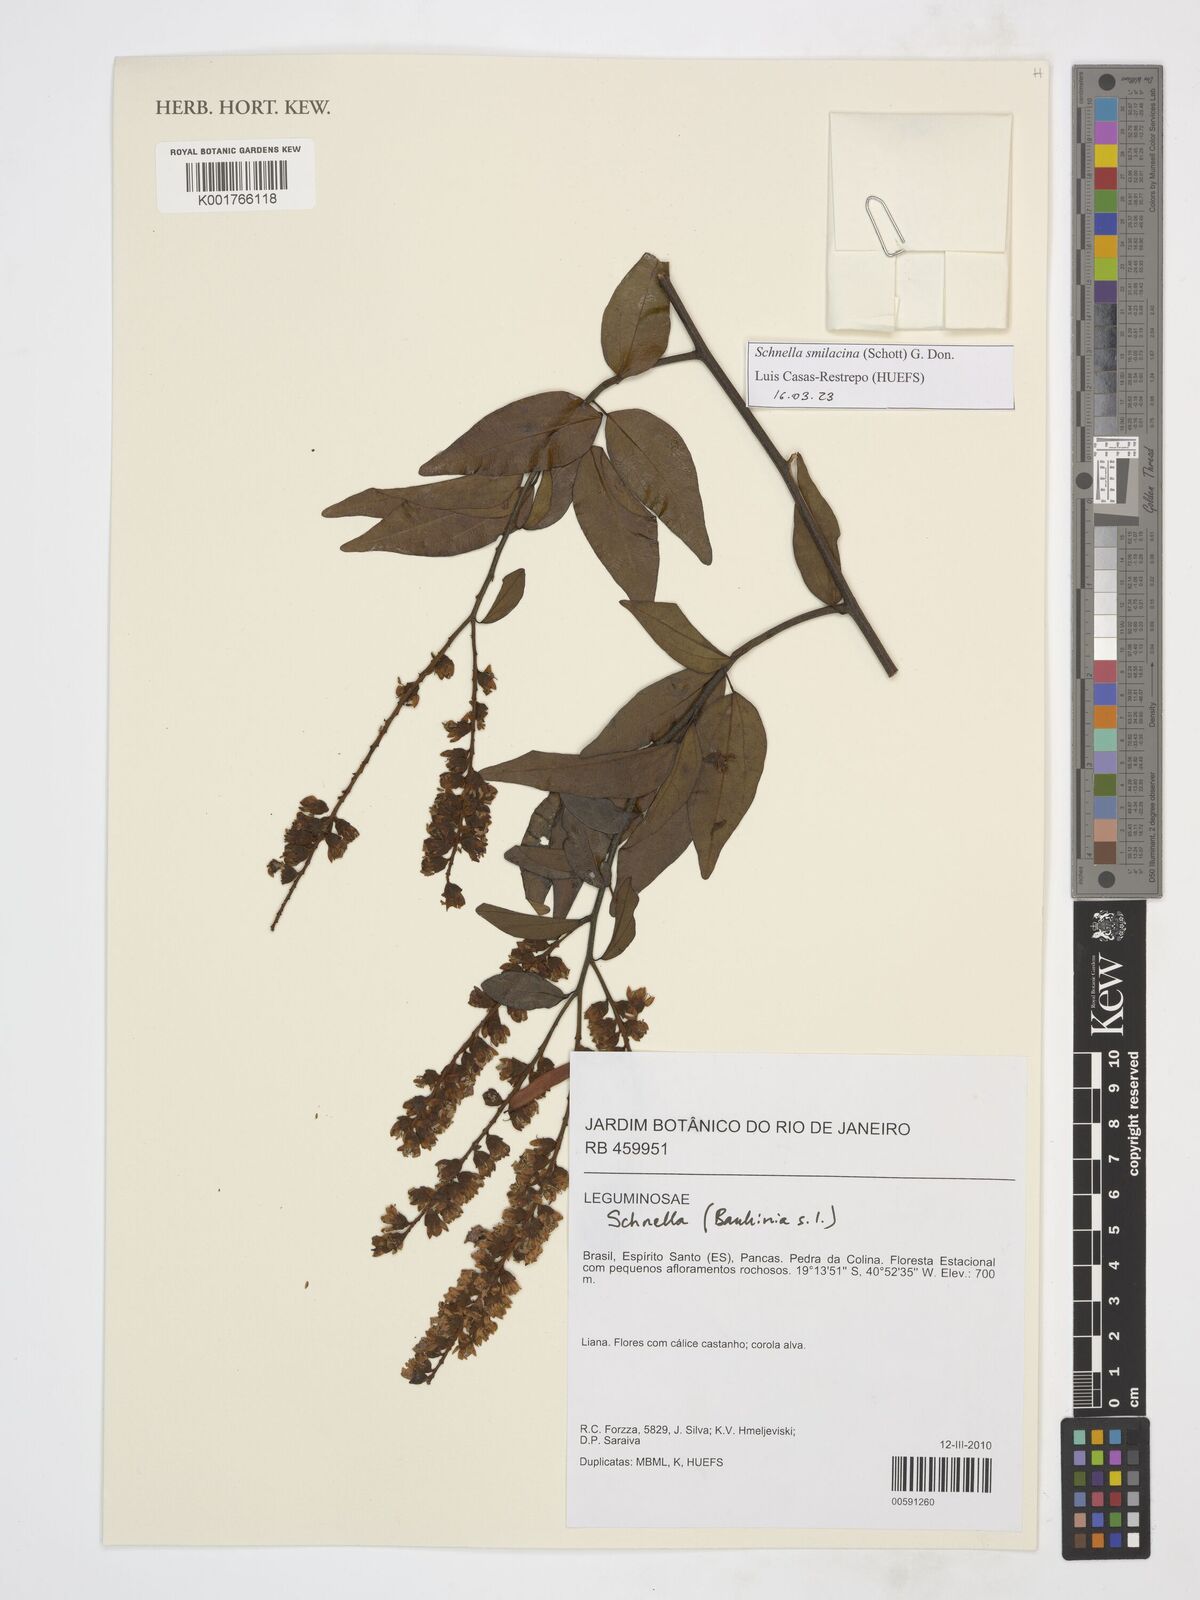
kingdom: Plantae
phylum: Tracheophyta
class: Magnoliopsida
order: Fabales
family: Fabaceae
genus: Schnella
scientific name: Schnella smilacina
